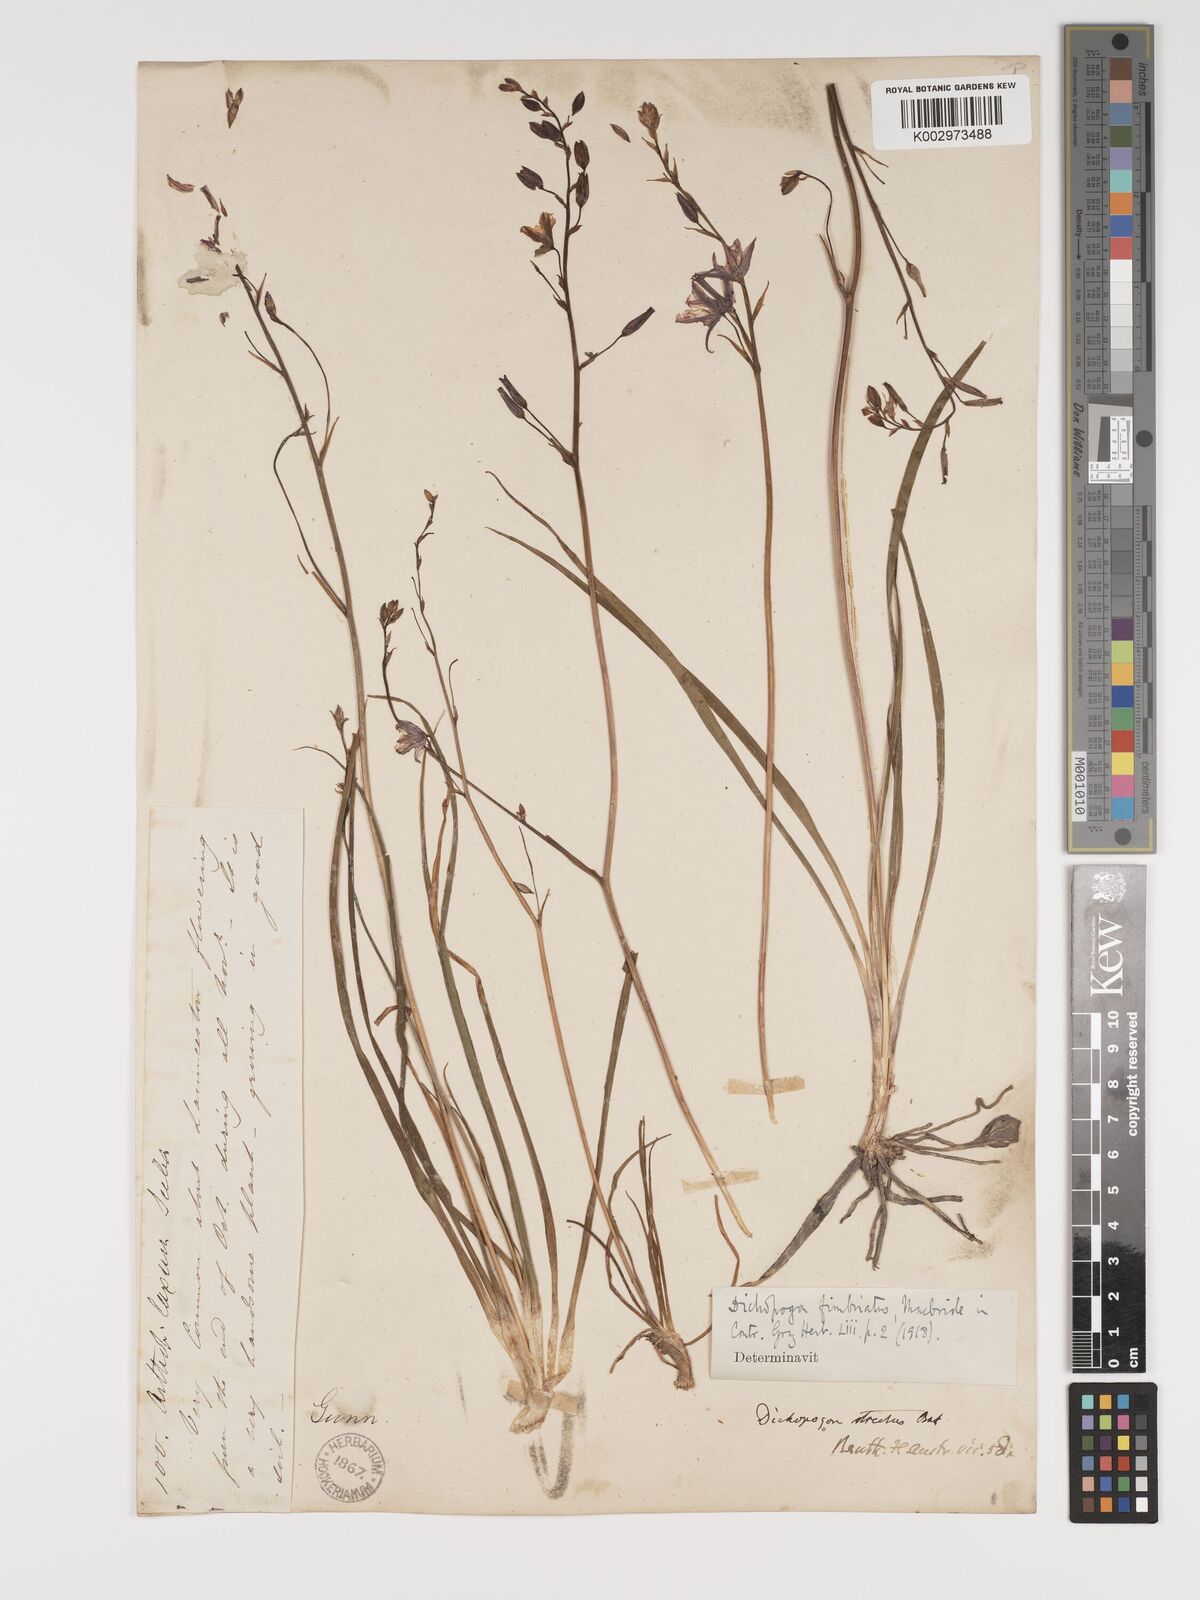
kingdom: Plantae
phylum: Tracheophyta
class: Liliopsida
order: Asparagales
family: Asparagaceae
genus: Arthropodium
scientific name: Arthropodium strictum
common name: Chocolate-lily
